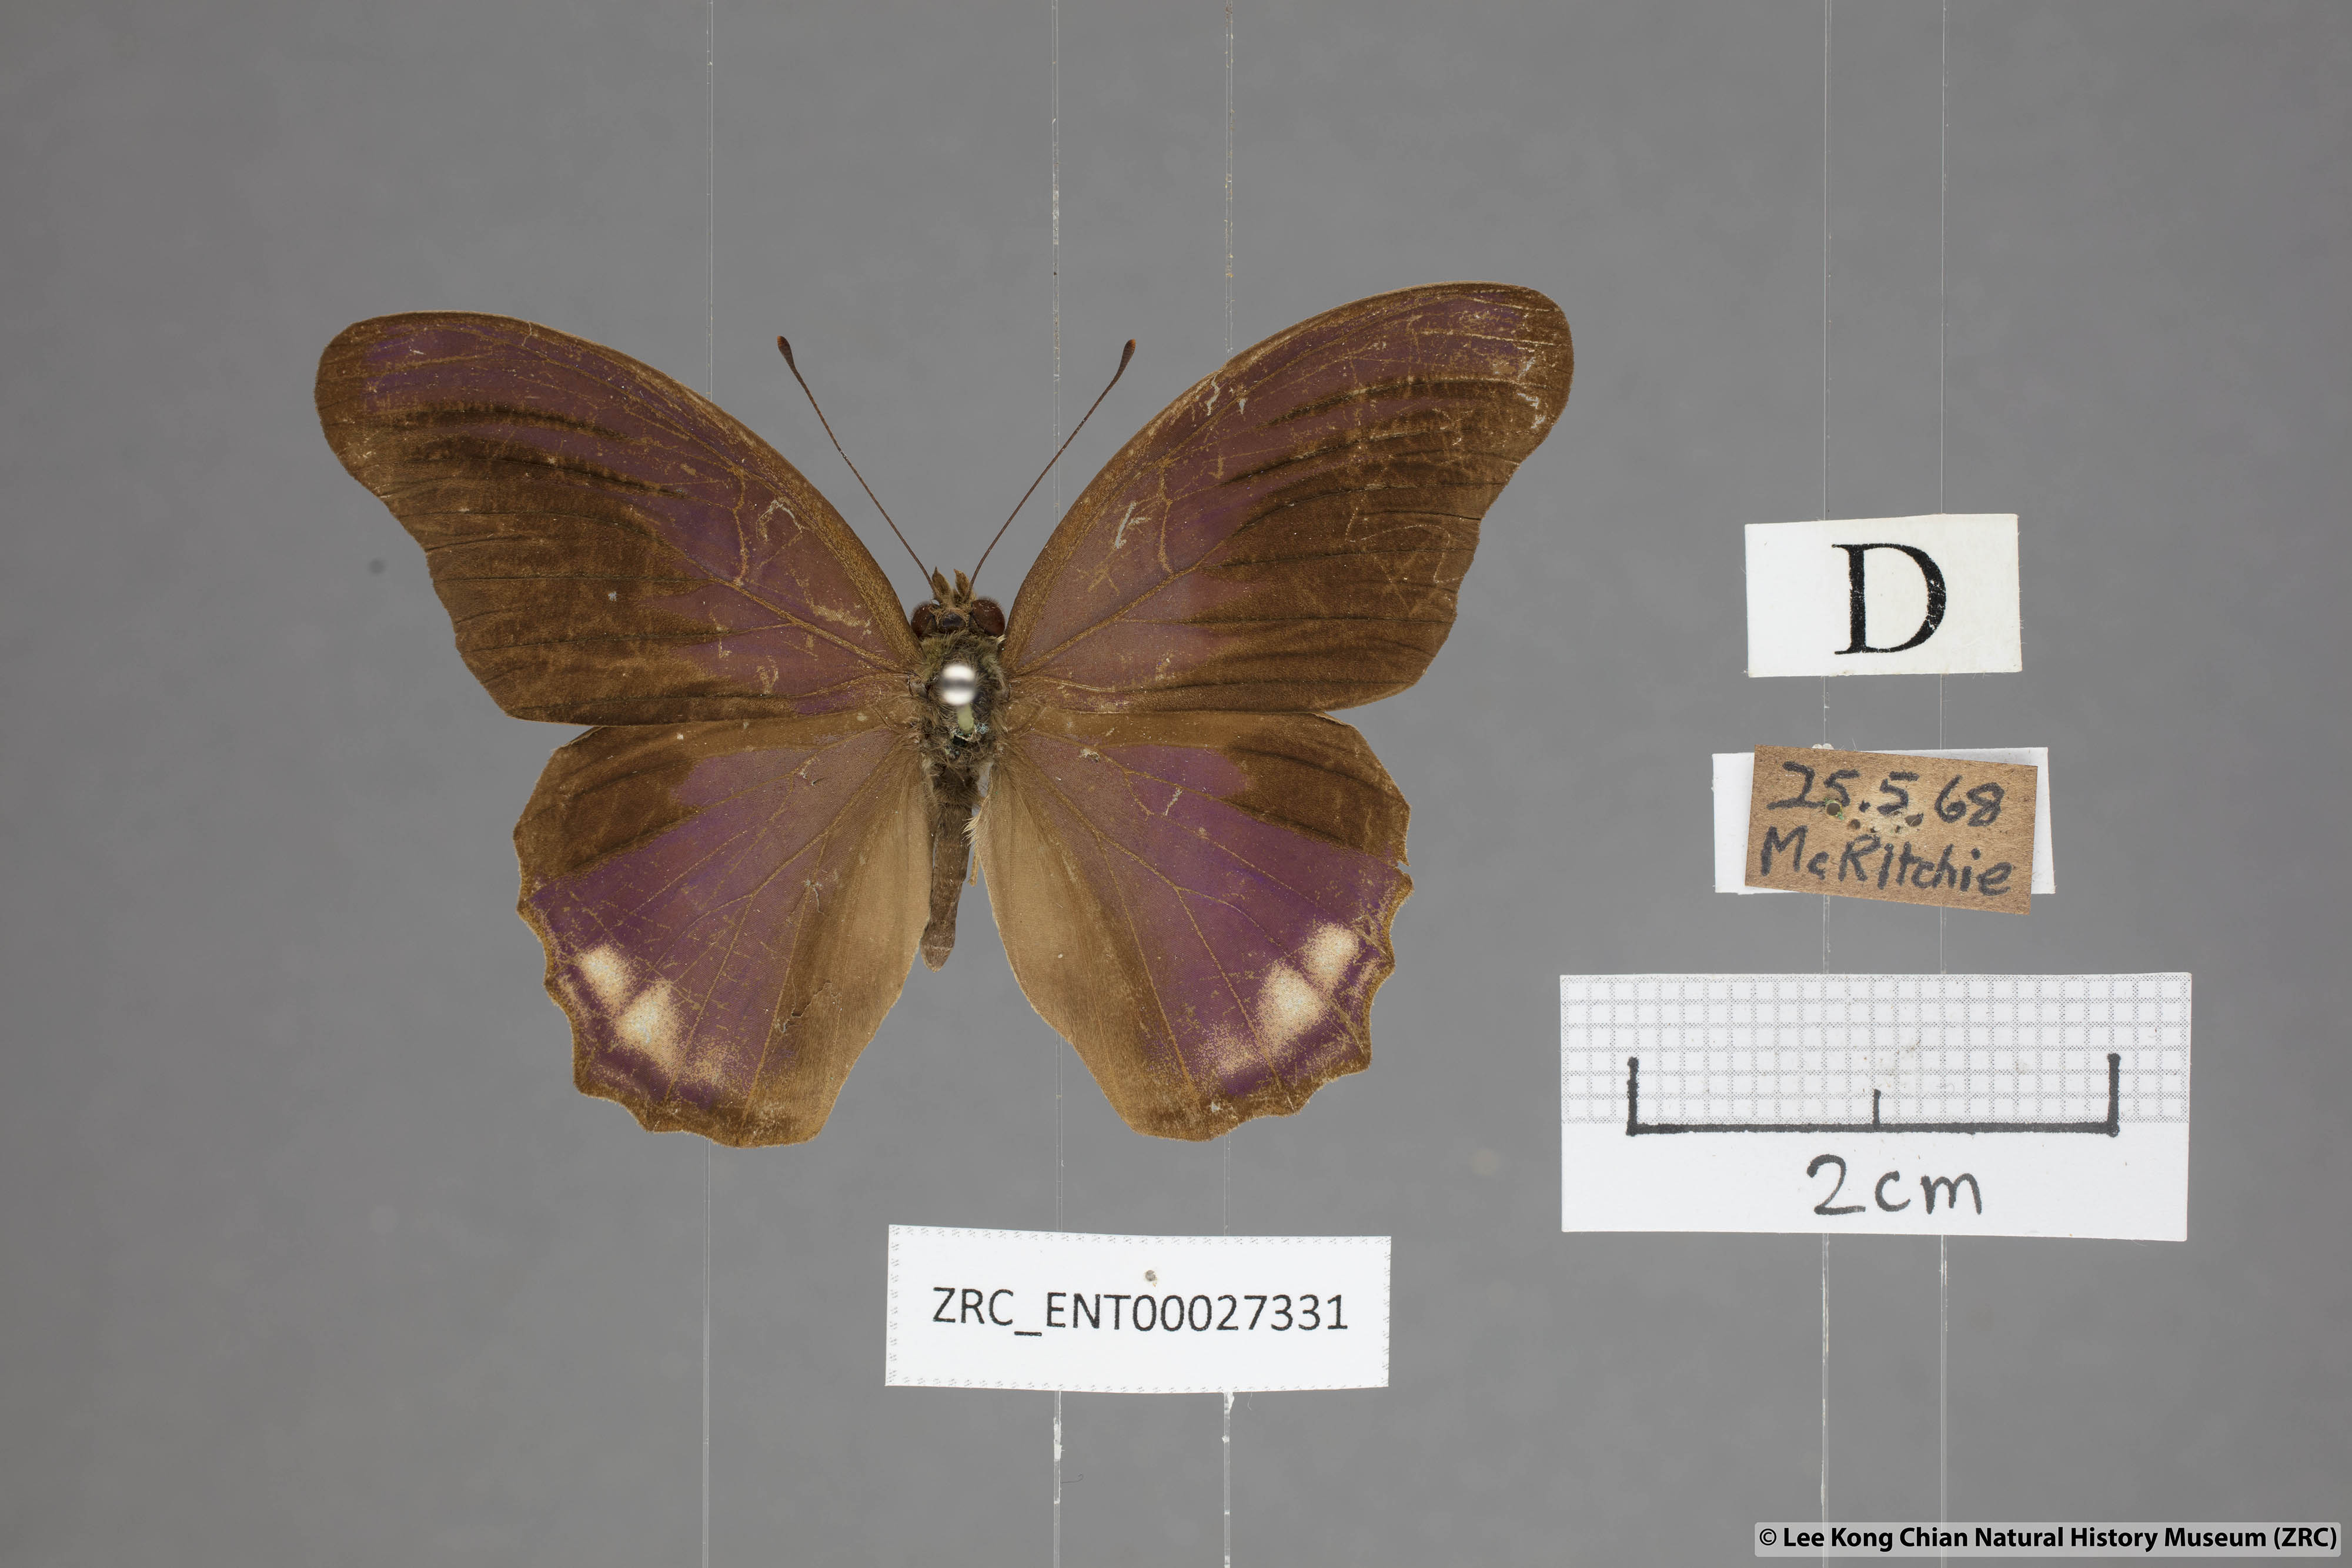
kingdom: Animalia
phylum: Arthropoda
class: Insecta
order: Lepidoptera
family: Nymphalidae
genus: Terinos
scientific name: Terinos terpander
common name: Royal assyrian
